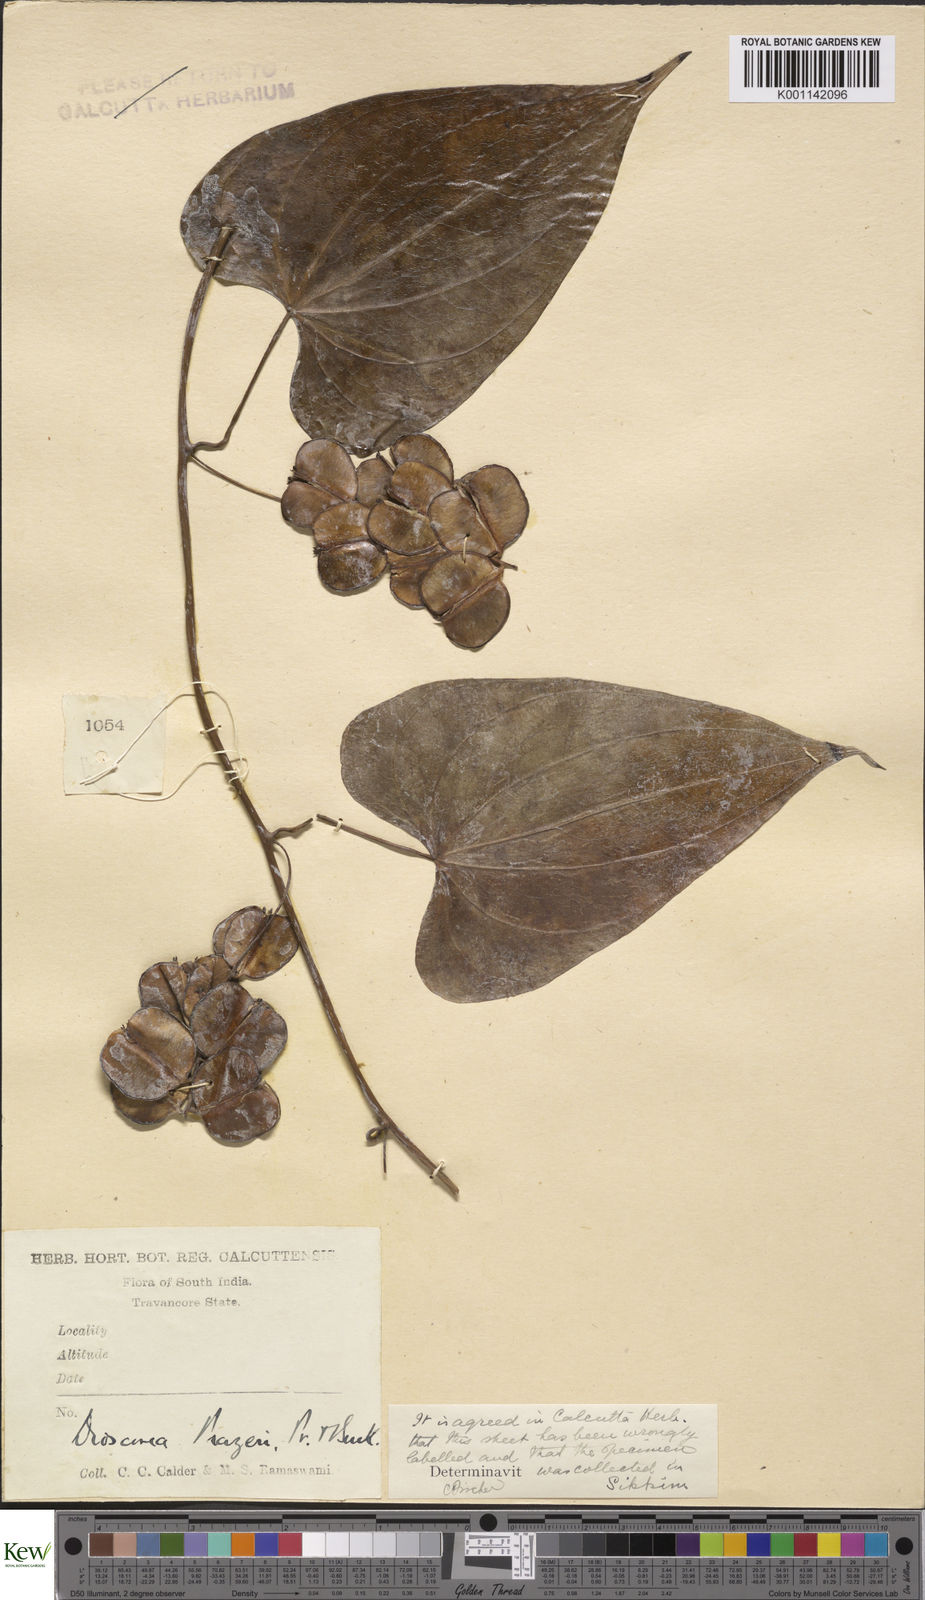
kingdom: Plantae
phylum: Tracheophyta
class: Liliopsida
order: Dioscoreales
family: Dioscoreaceae
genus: Dioscorea
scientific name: Dioscorea prazeri
